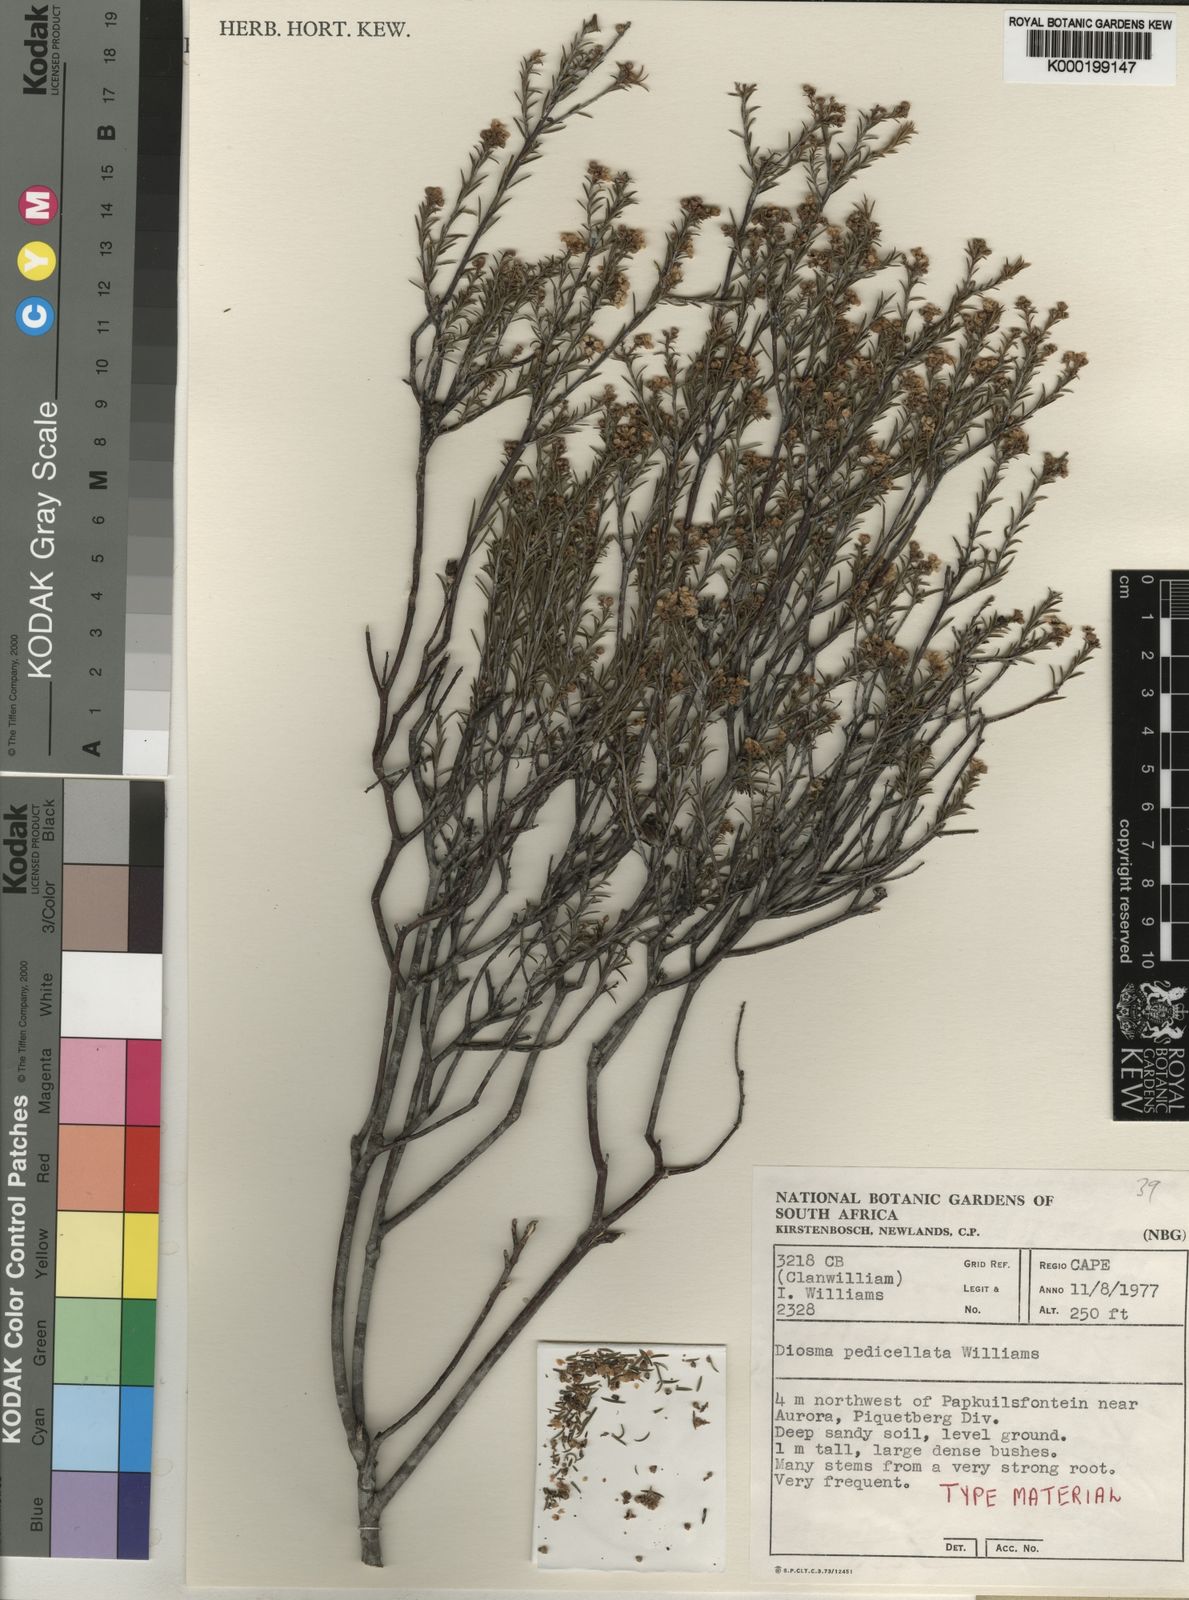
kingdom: Plantae
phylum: Tracheophyta
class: Magnoliopsida
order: Sapindales
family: Rutaceae
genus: Diosma
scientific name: Diosma pedicellata
